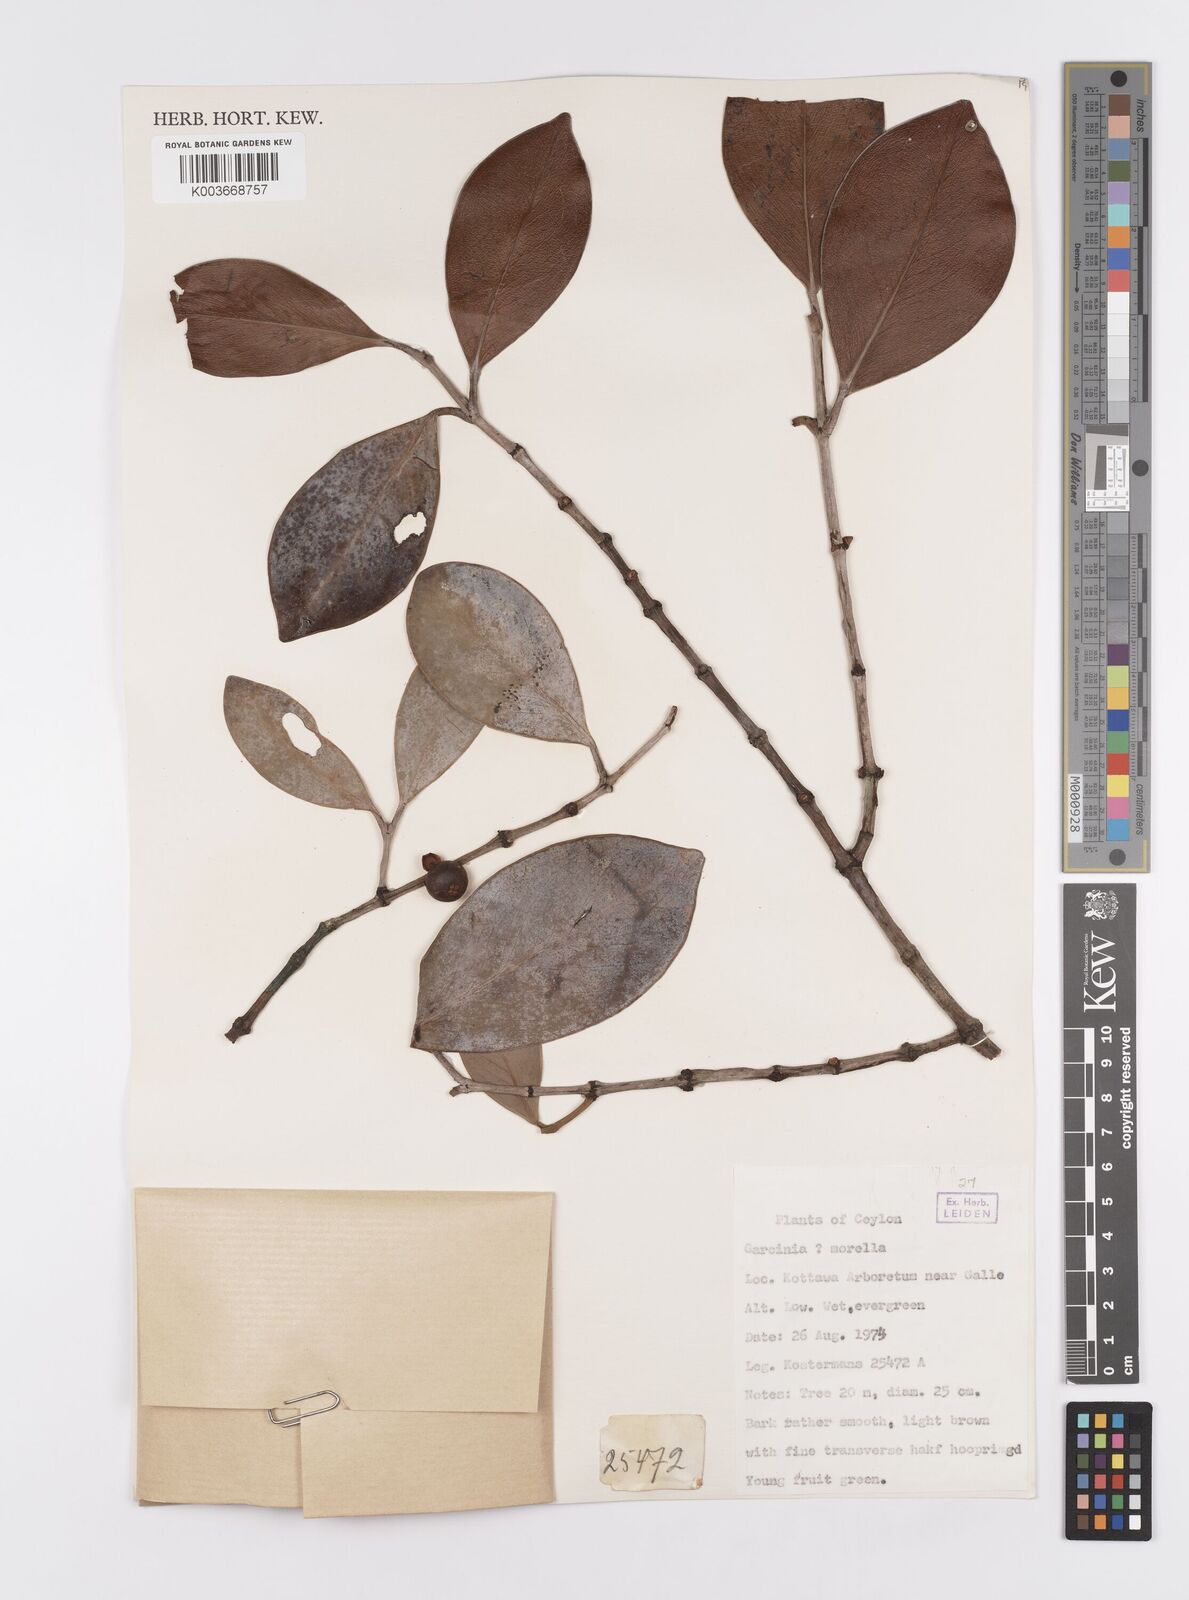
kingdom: Plantae
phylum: Tracheophyta
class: Magnoliopsida
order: Malpighiales
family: Clusiaceae
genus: Garcinia
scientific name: Garcinia morella
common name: Indian gamboge-tree
